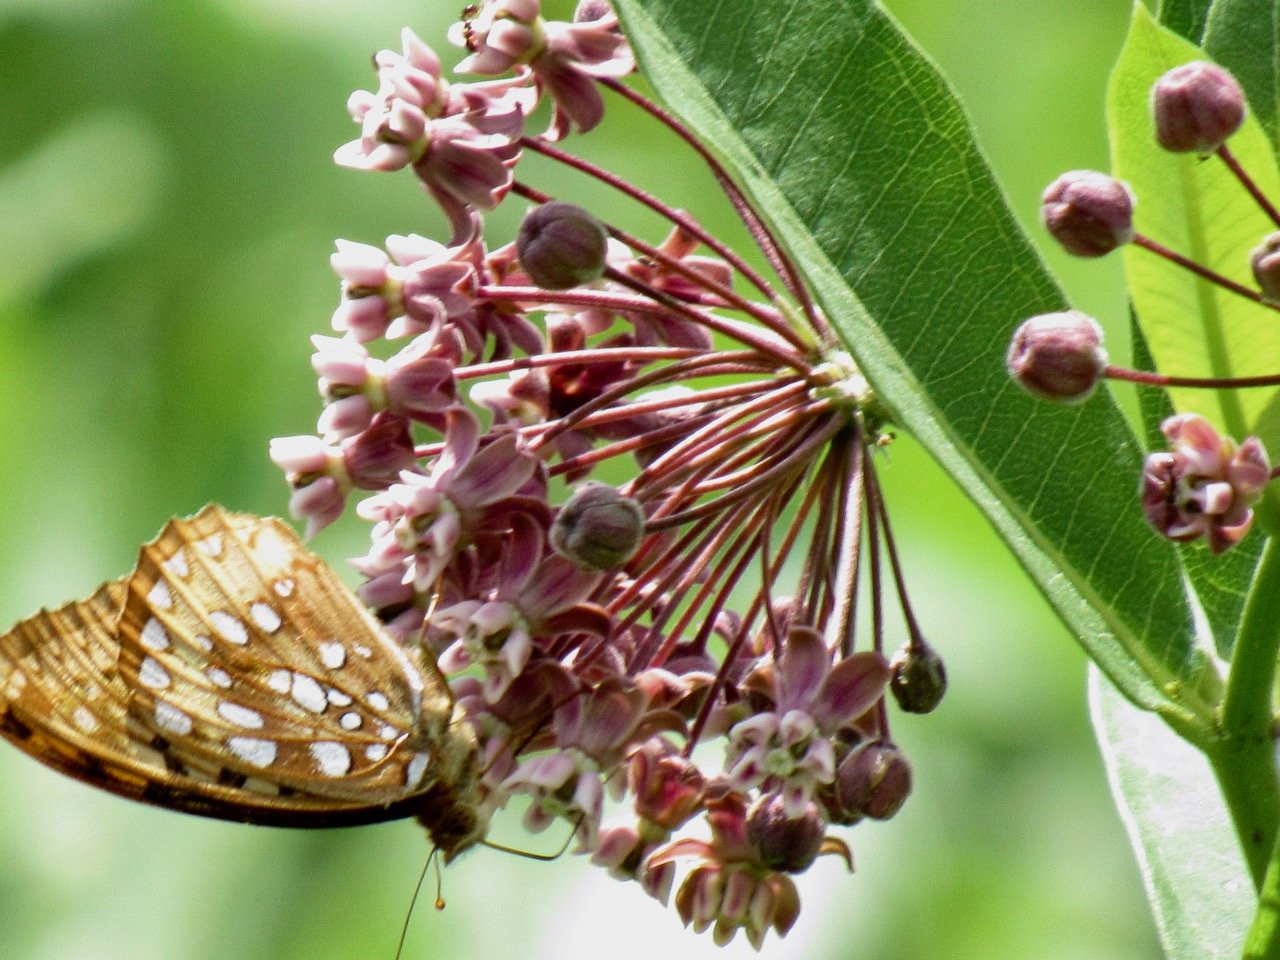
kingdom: Animalia
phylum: Arthropoda
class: Insecta
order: Lepidoptera
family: Nymphalidae
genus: Speyeria
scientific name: Speyeria cybele
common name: Great Spangled Fritillary
